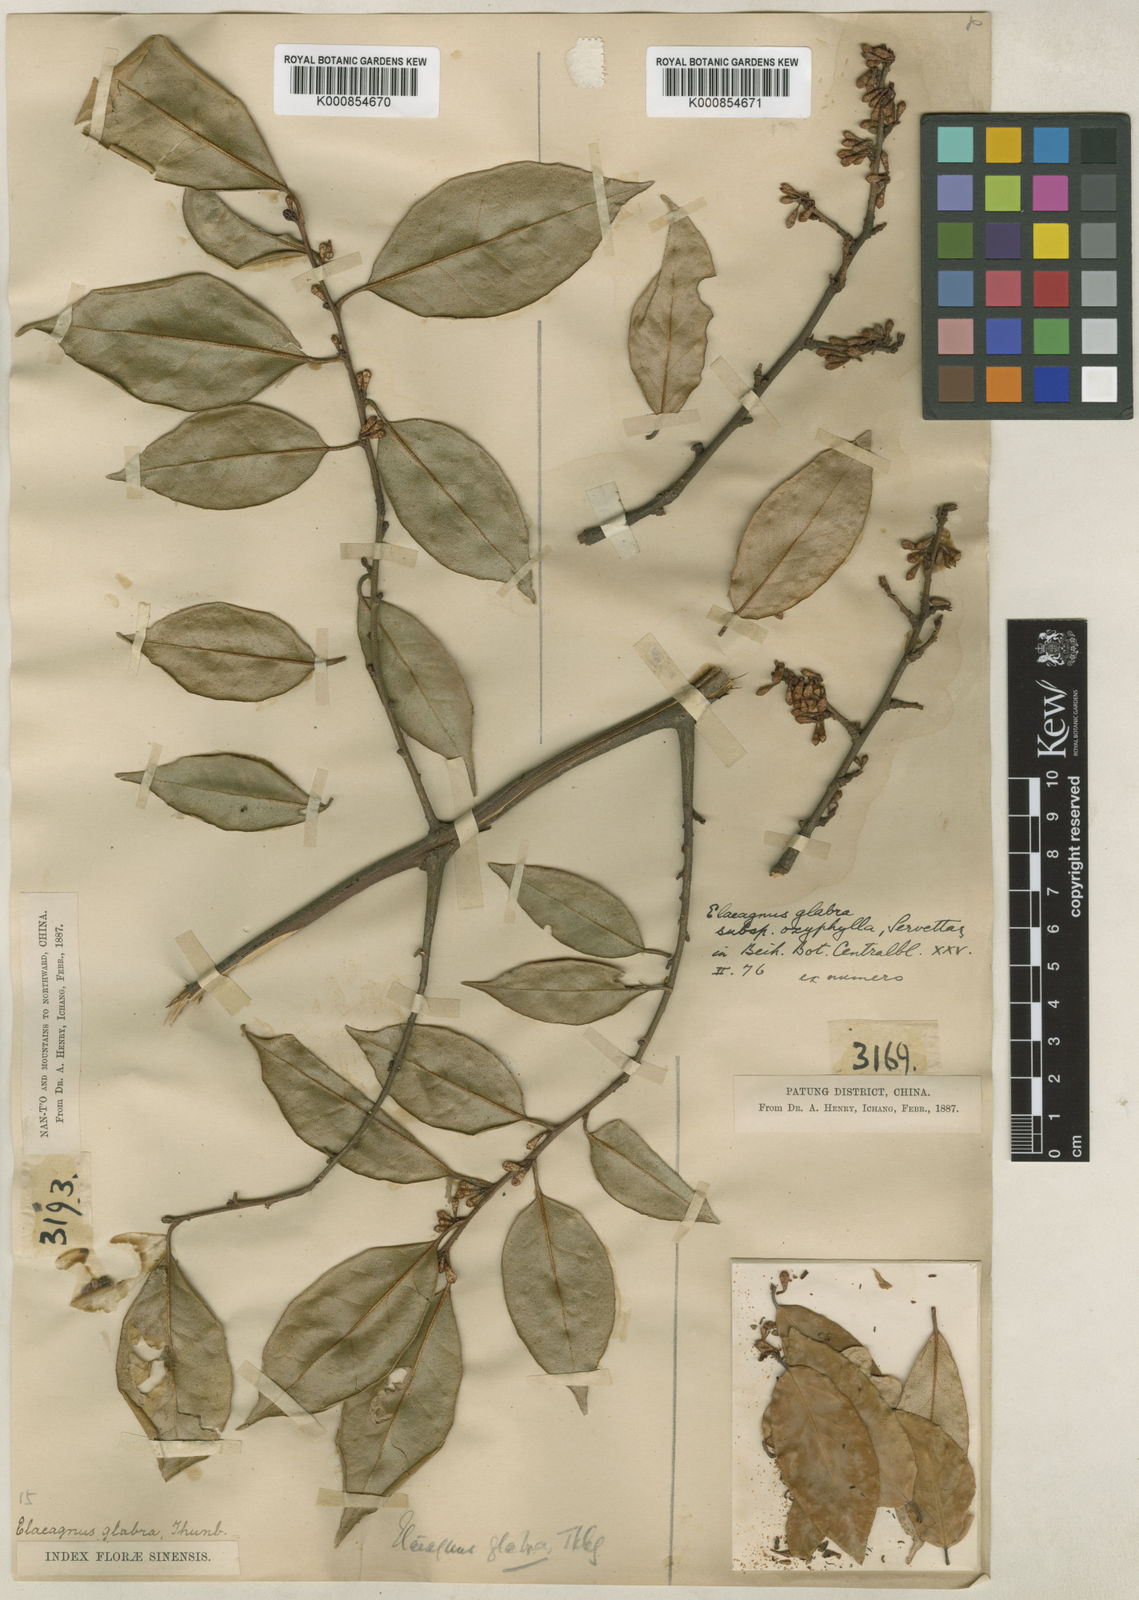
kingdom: Plantae
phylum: Tracheophyta
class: Magnoliopsida
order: Rosales
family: Elaeagnaceae
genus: Elaeagnus
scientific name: Elaeagnus glabra
